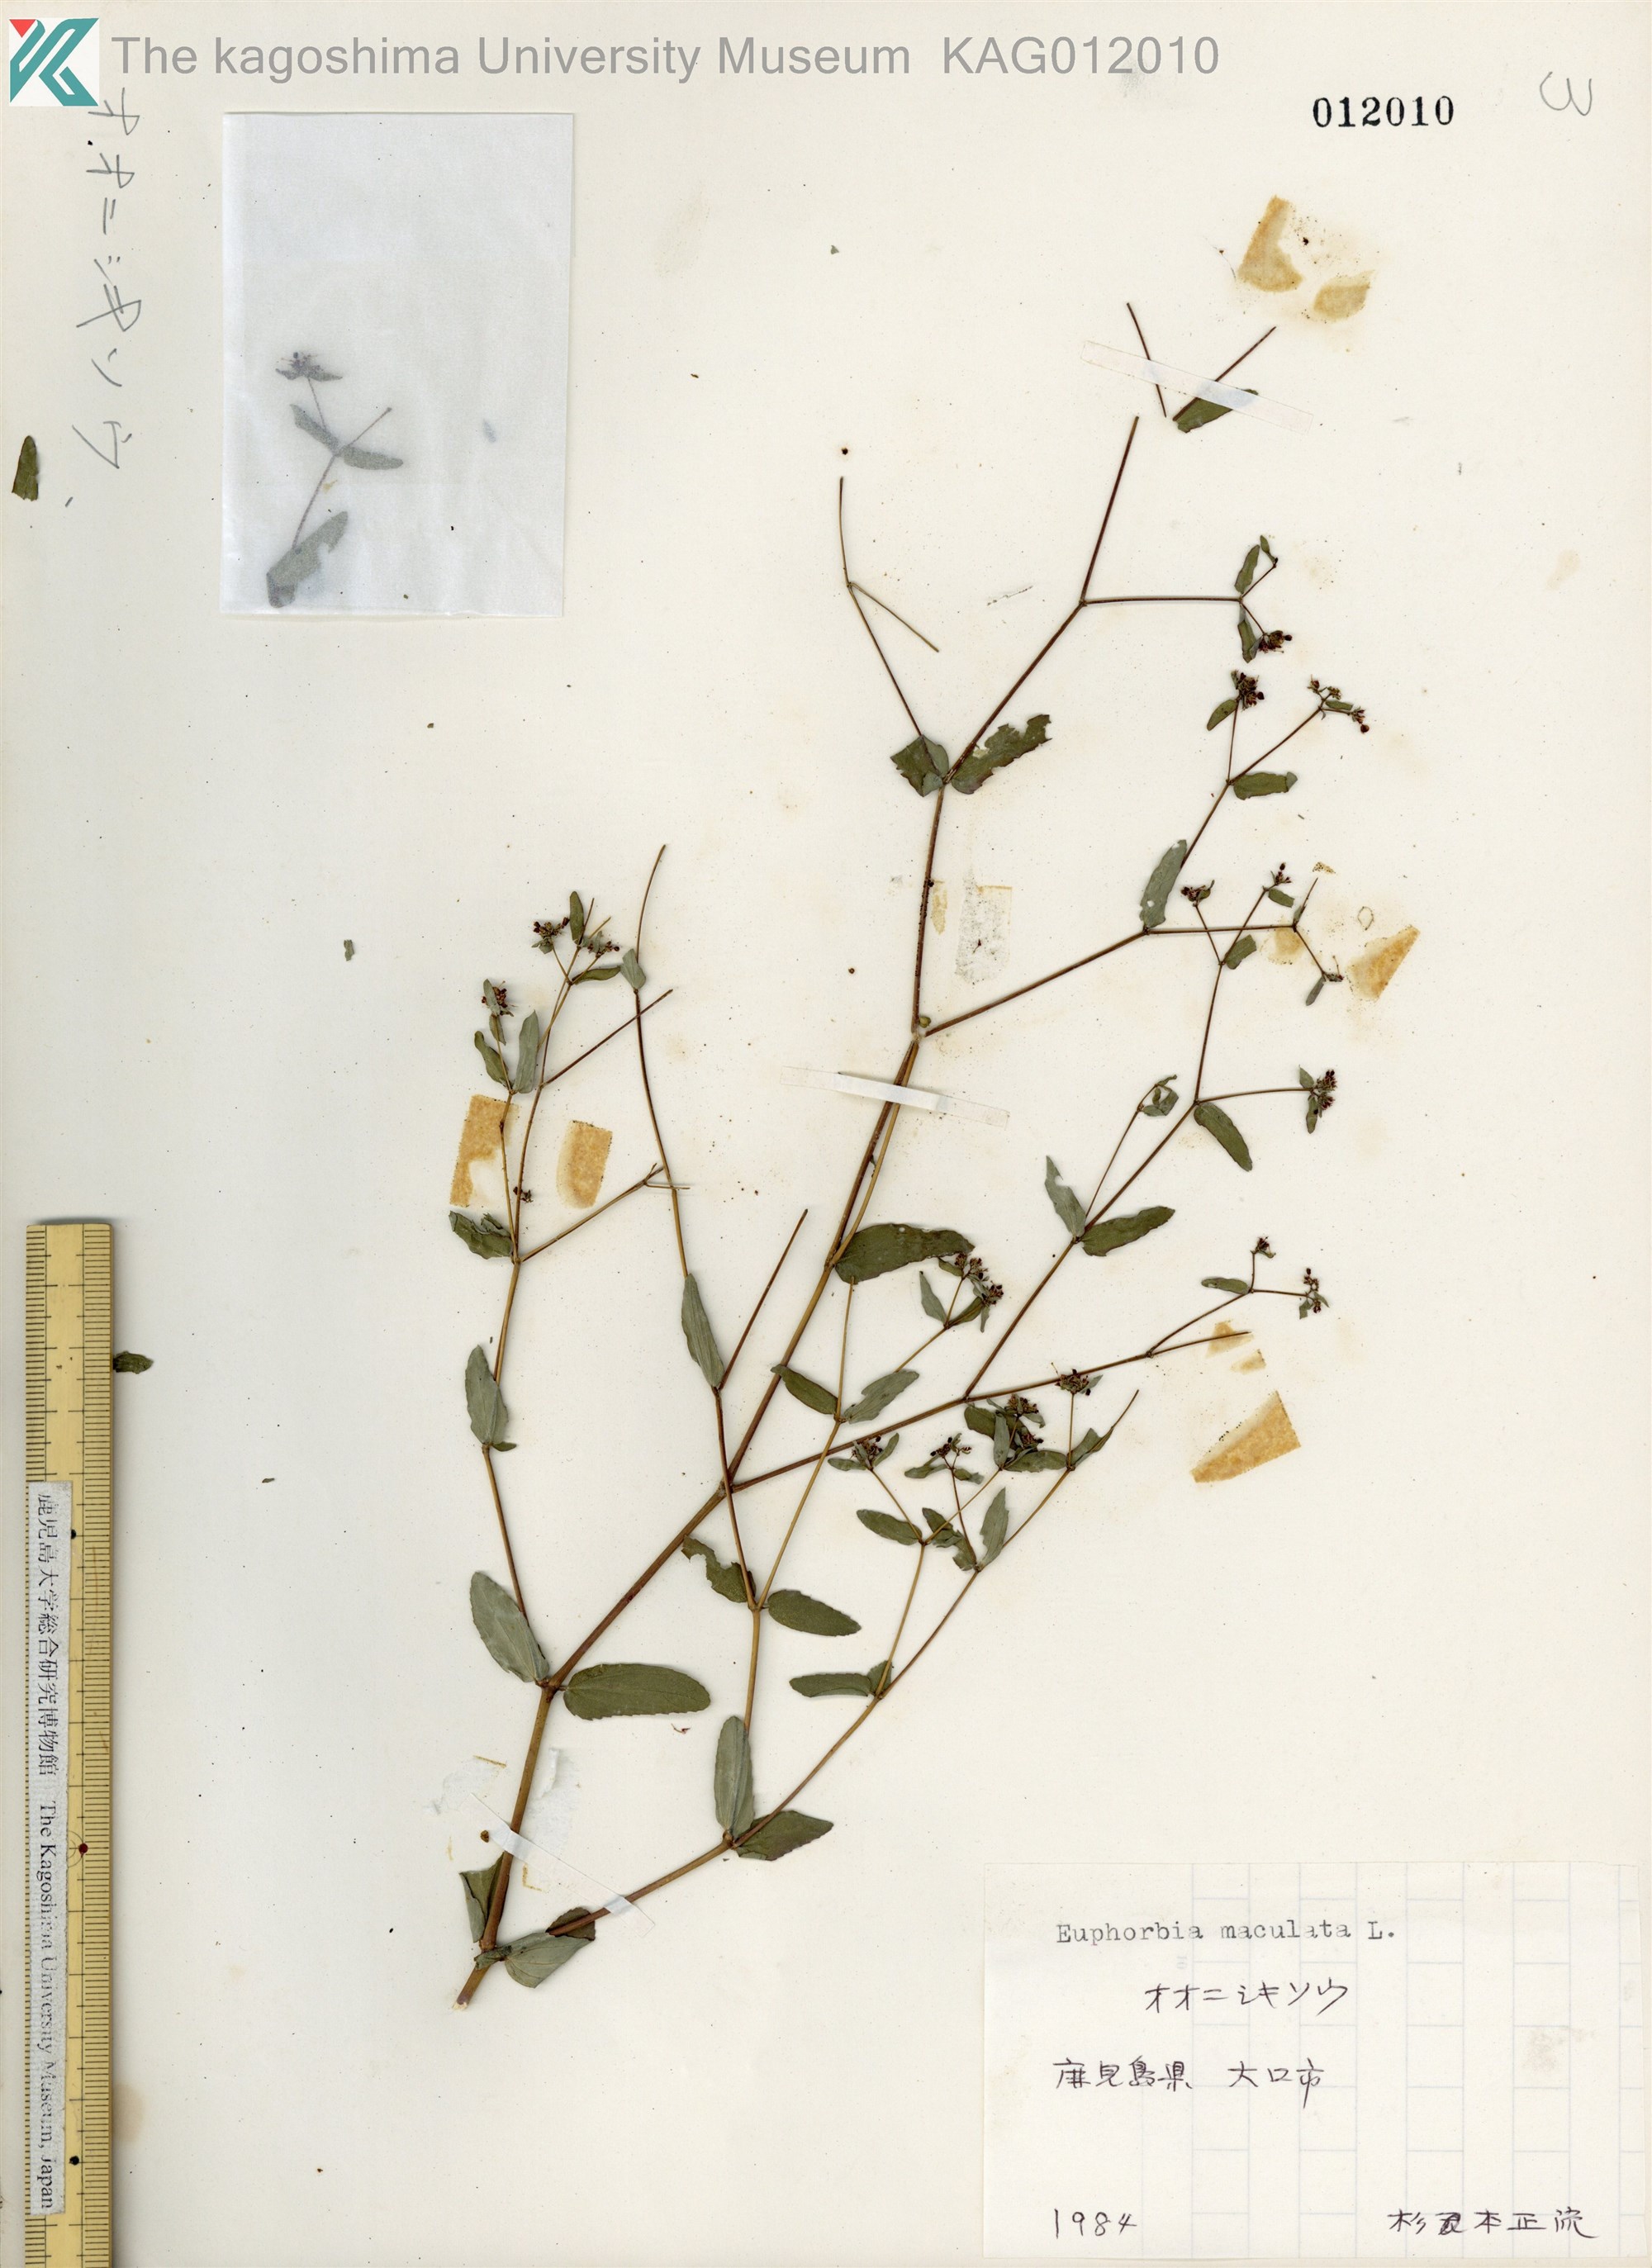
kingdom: Plantae
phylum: Tracheophyta
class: Magnoliopsida
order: Malpighiales
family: Euphorbiaceae
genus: Euphorbia
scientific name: Euphorbia hyssopifolia
